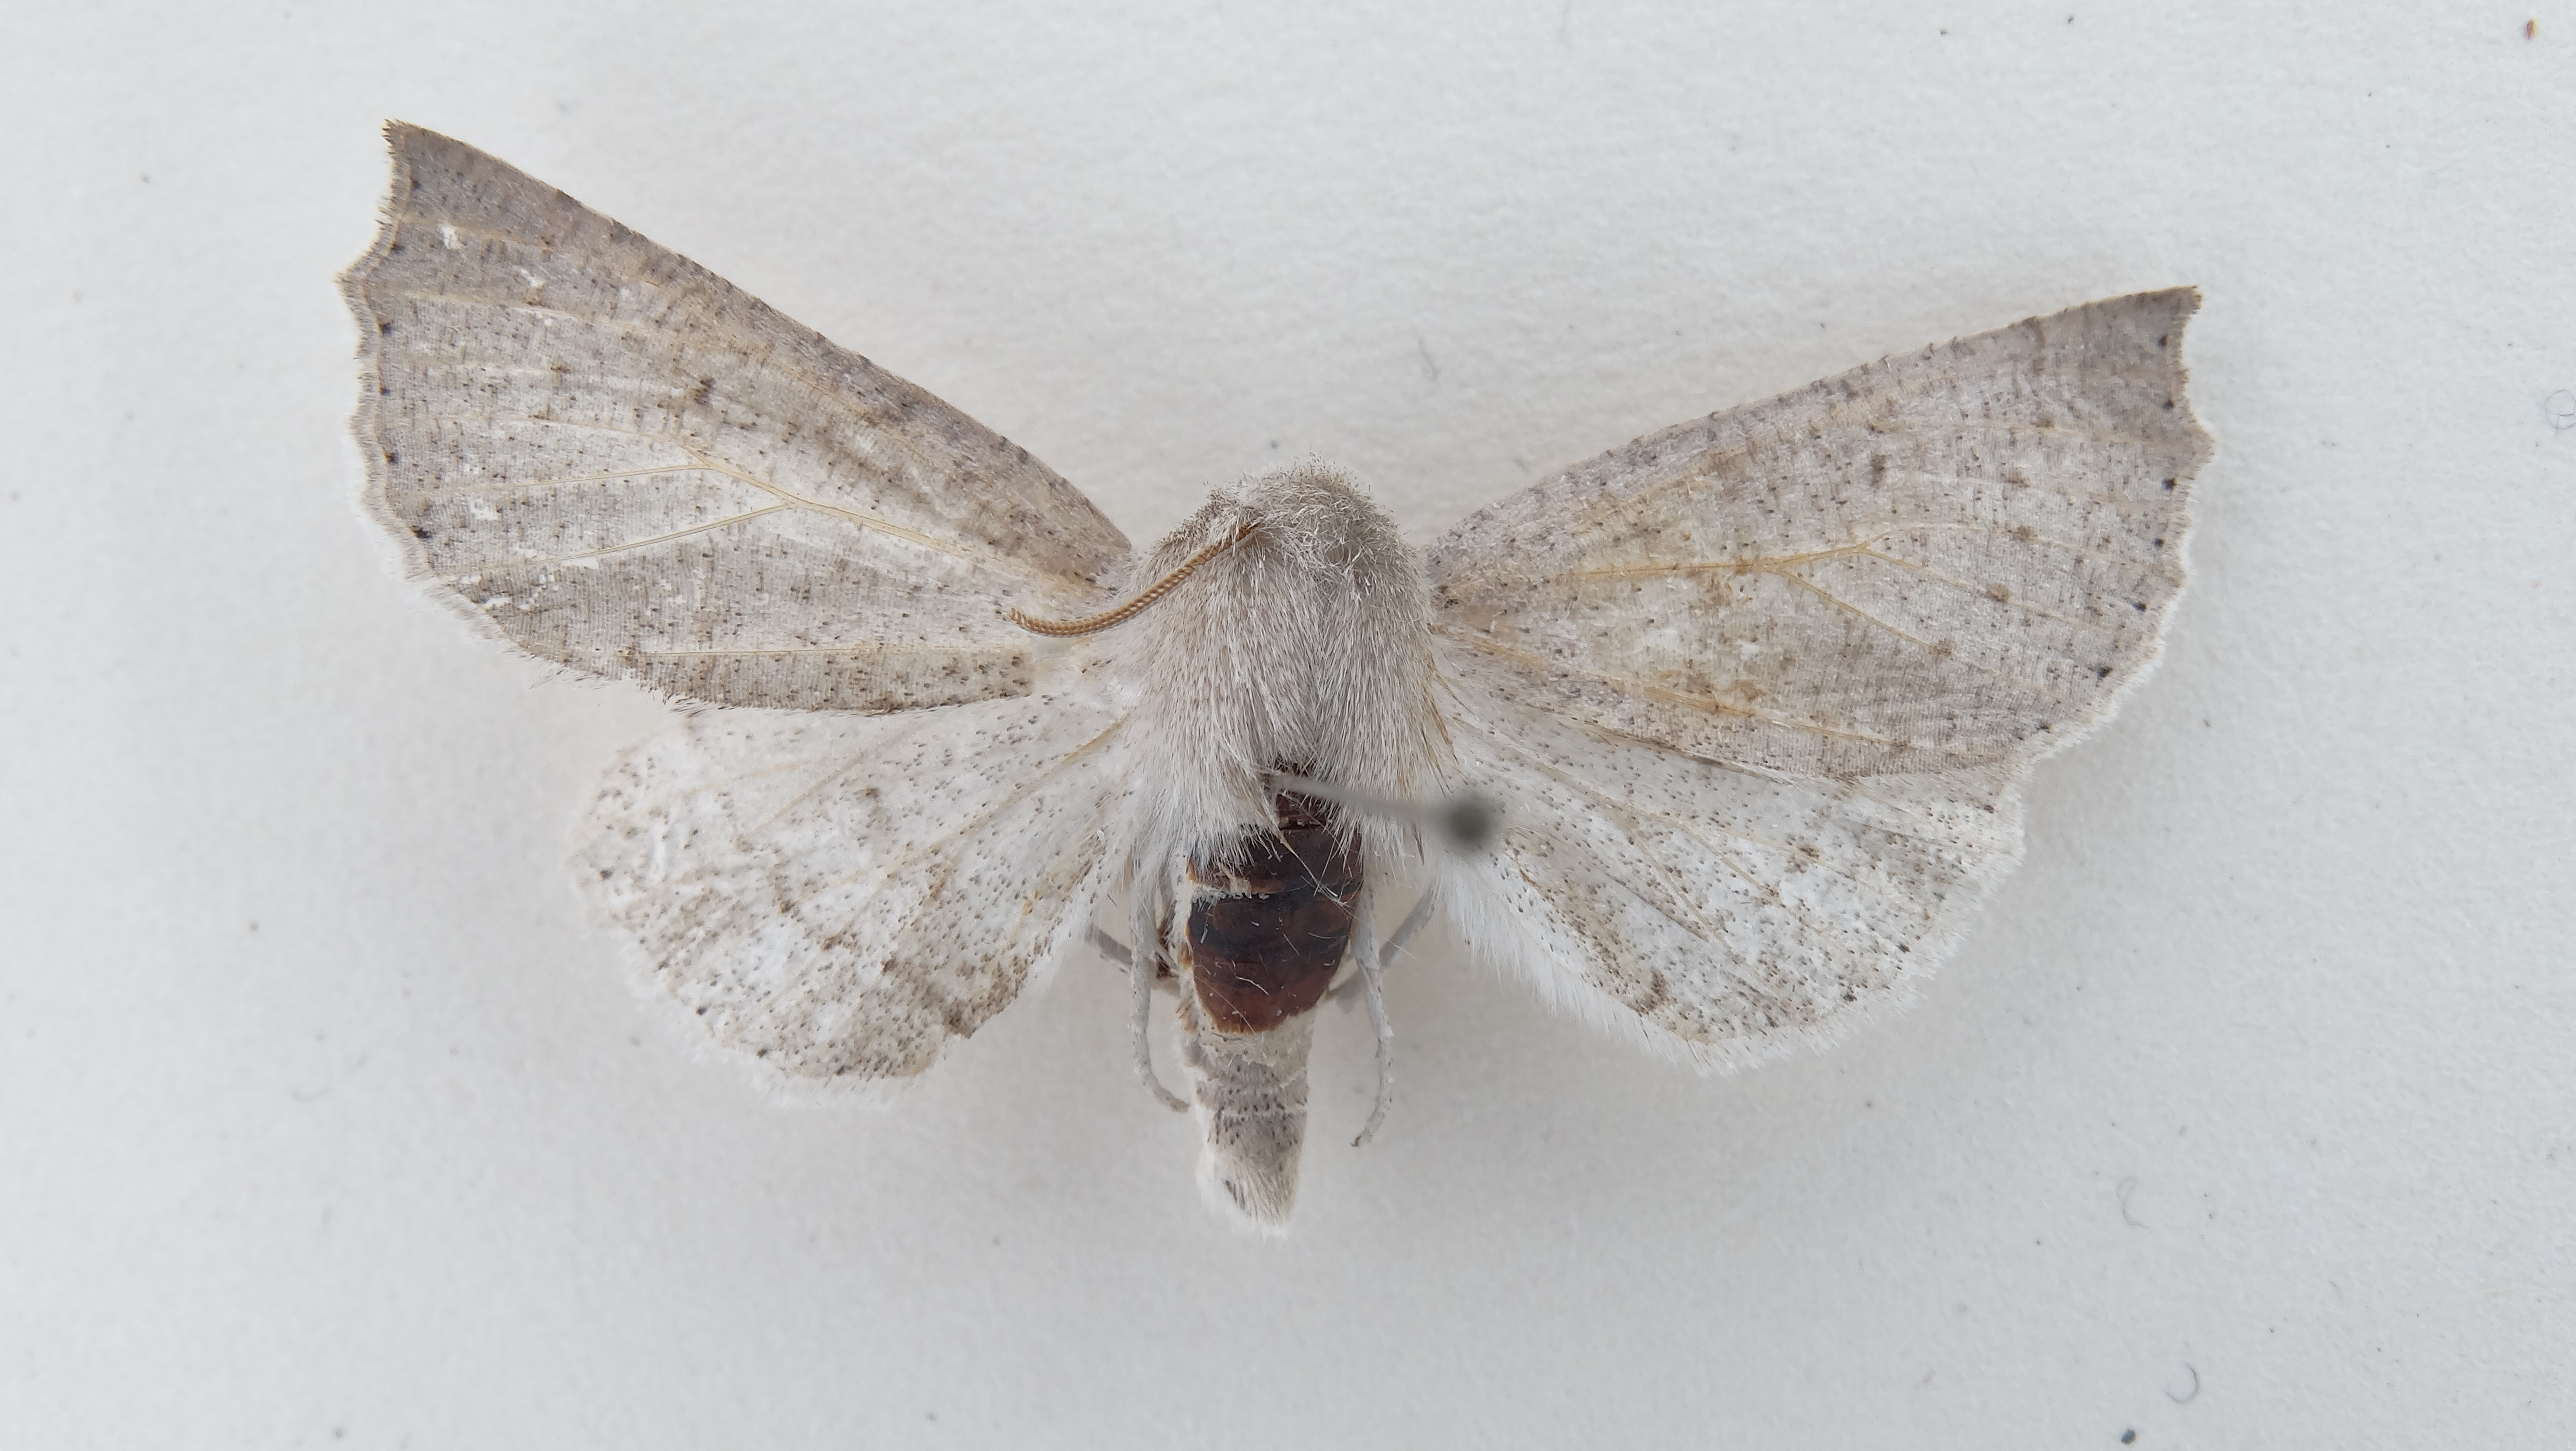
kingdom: Animalia
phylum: Arthropoda
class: Insecta
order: Lepidoptera
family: Geometridae
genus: Mallomus
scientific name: Mallomus lata
